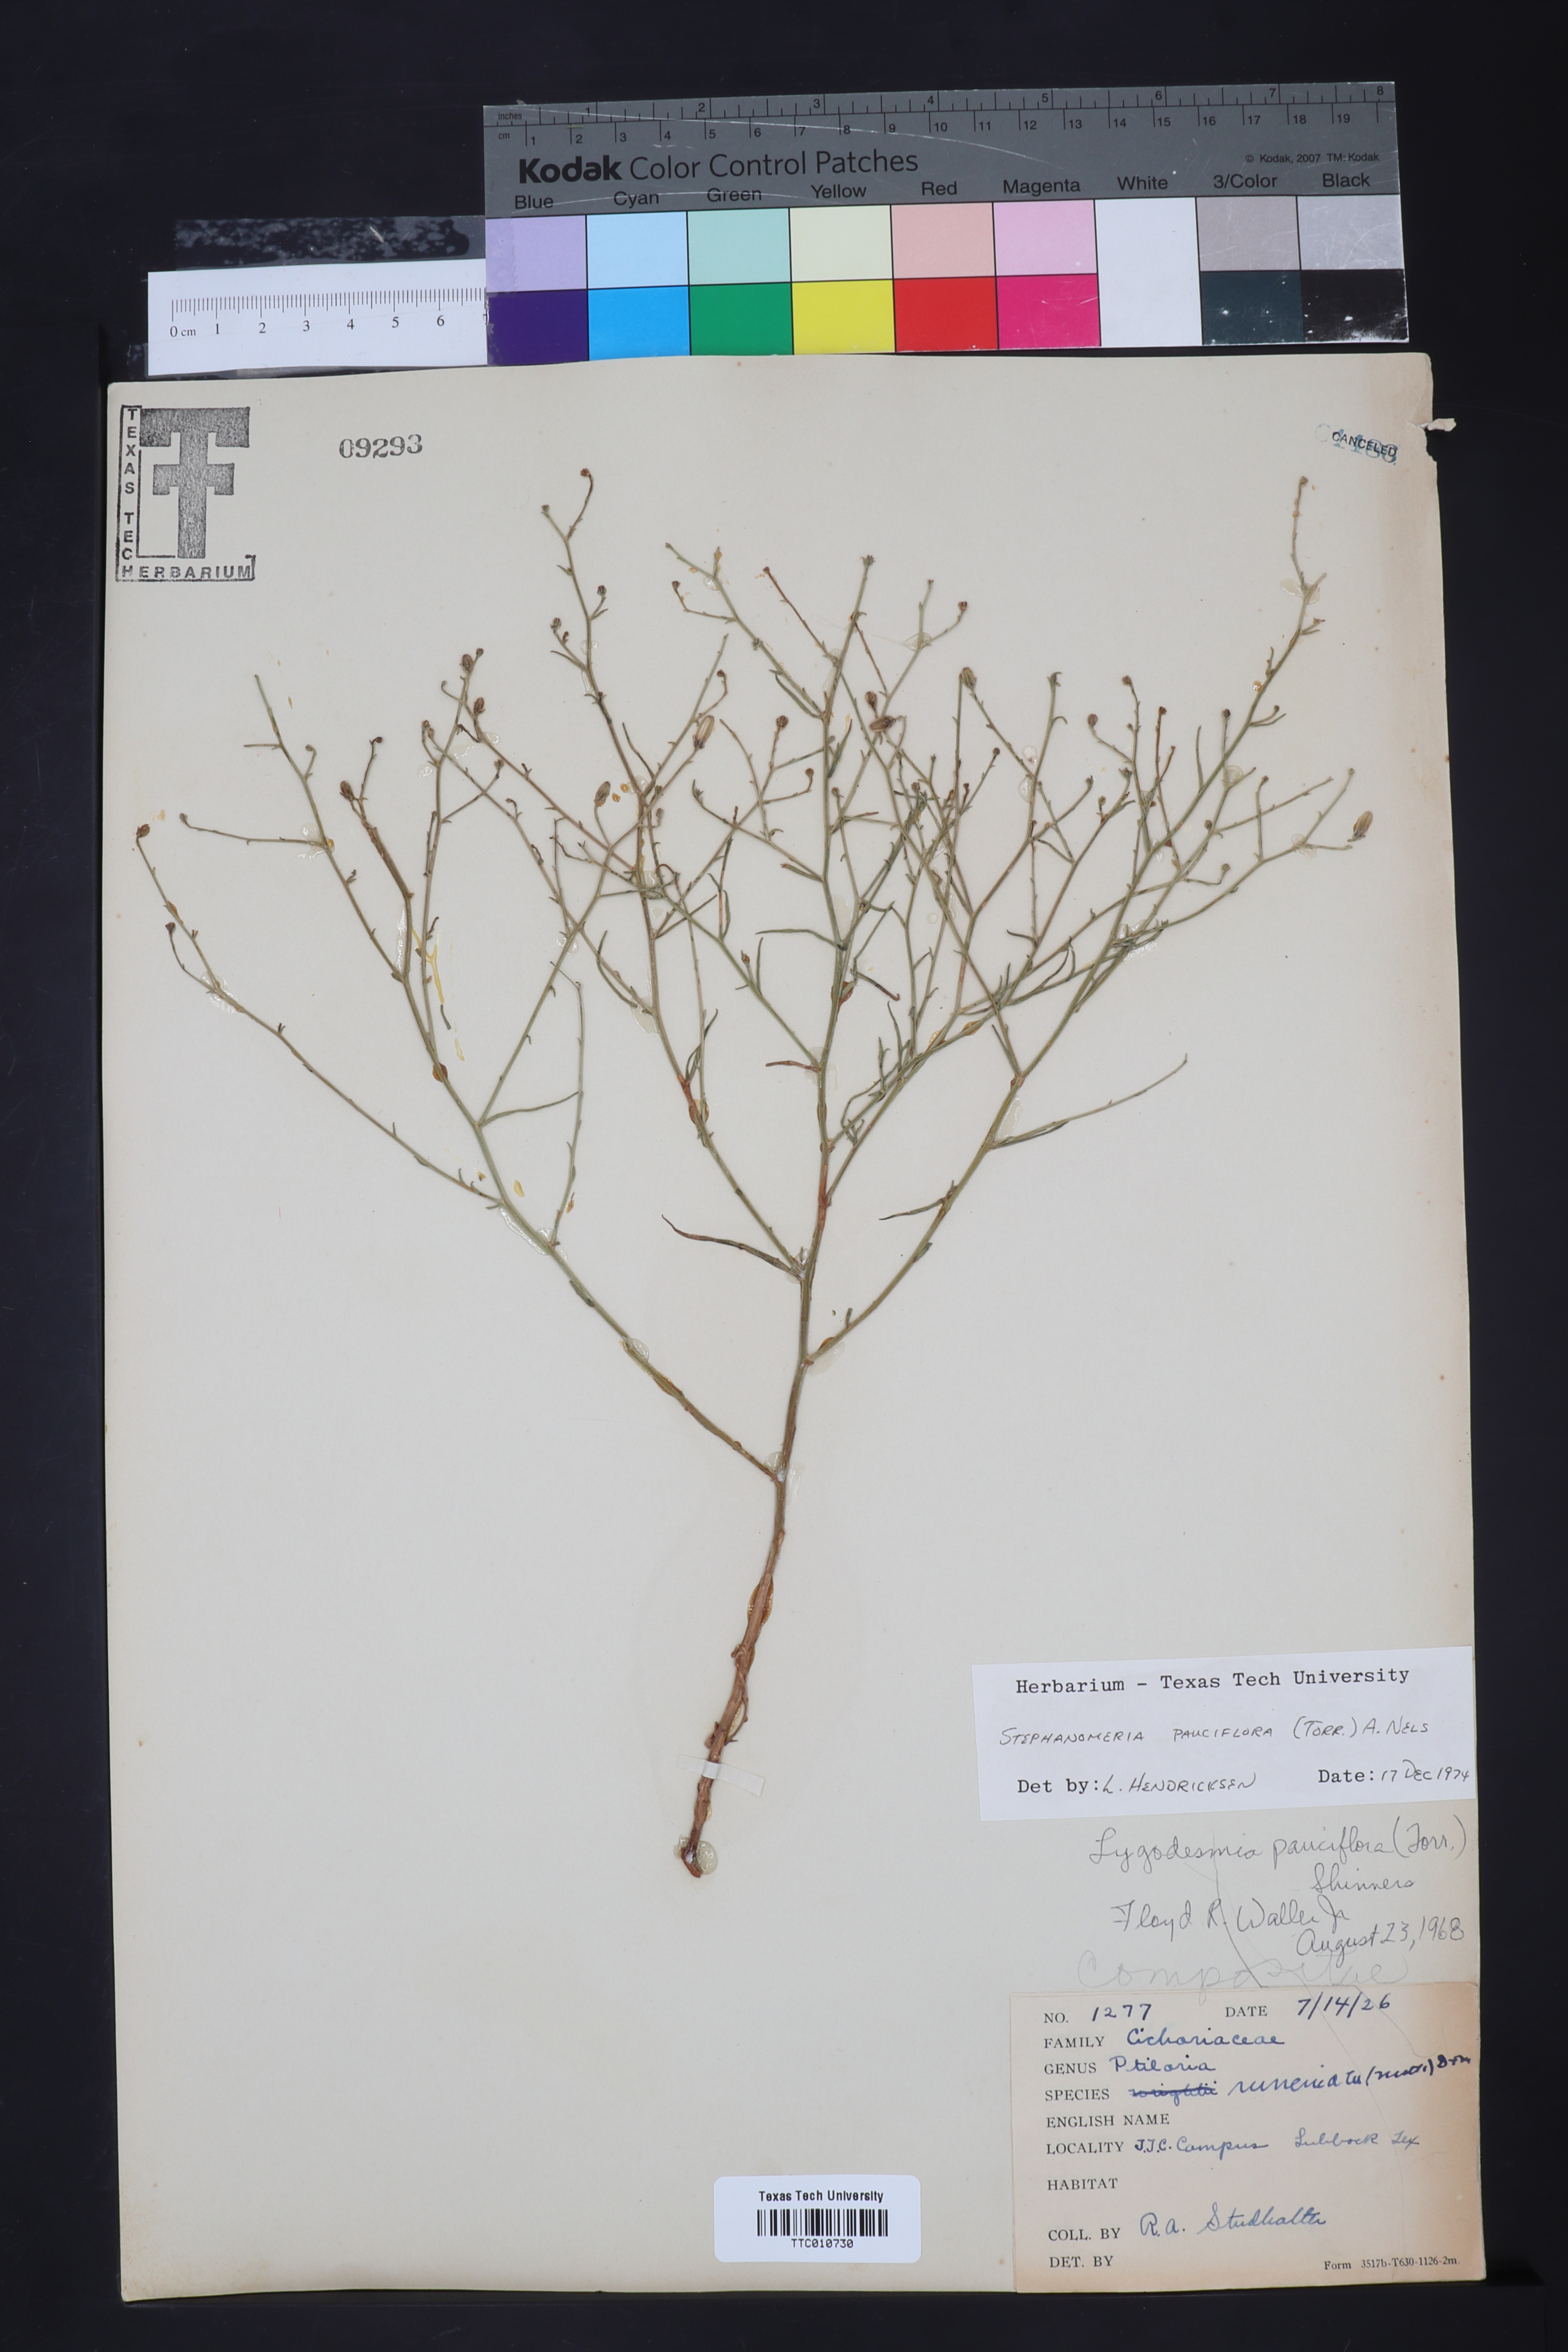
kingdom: Plantae
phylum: Tracheophyta
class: Magnoliopsida
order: Asterales
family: Asteraceae
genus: Stephanomeria
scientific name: Stephanomeria pauciflora
